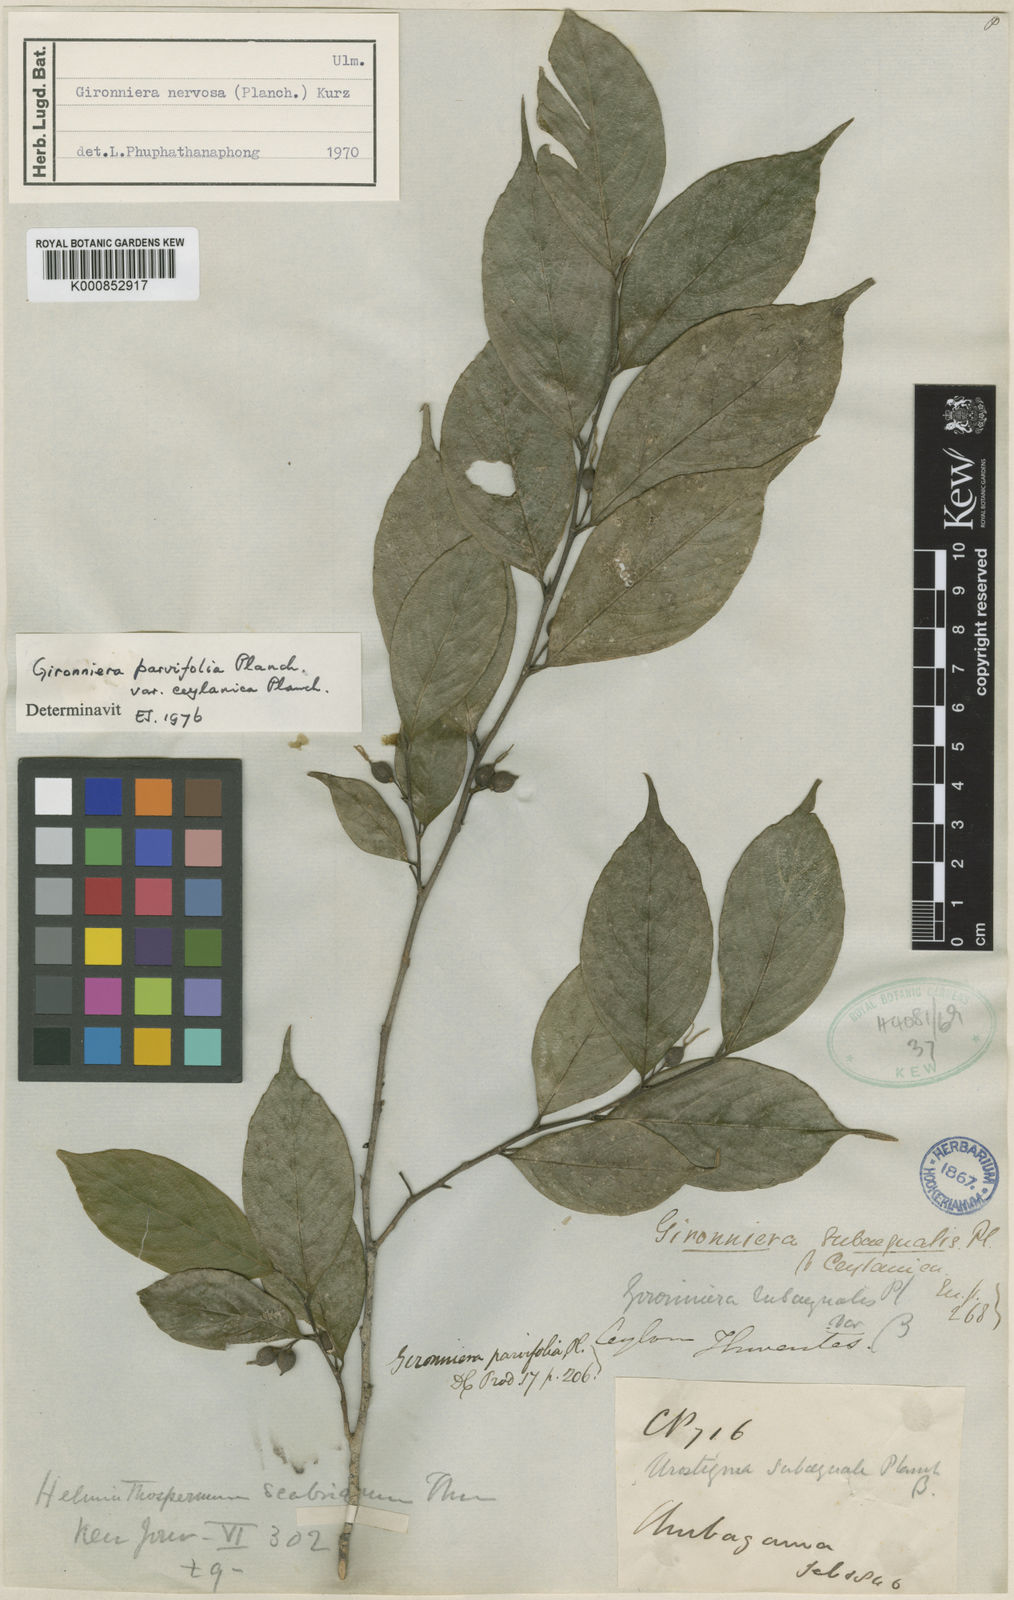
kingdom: Plantae
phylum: Tracheophyta
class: Magnoliopsida
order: Rosales
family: Cannabaceae
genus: Gironniera
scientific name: Gironniera parvifolia
